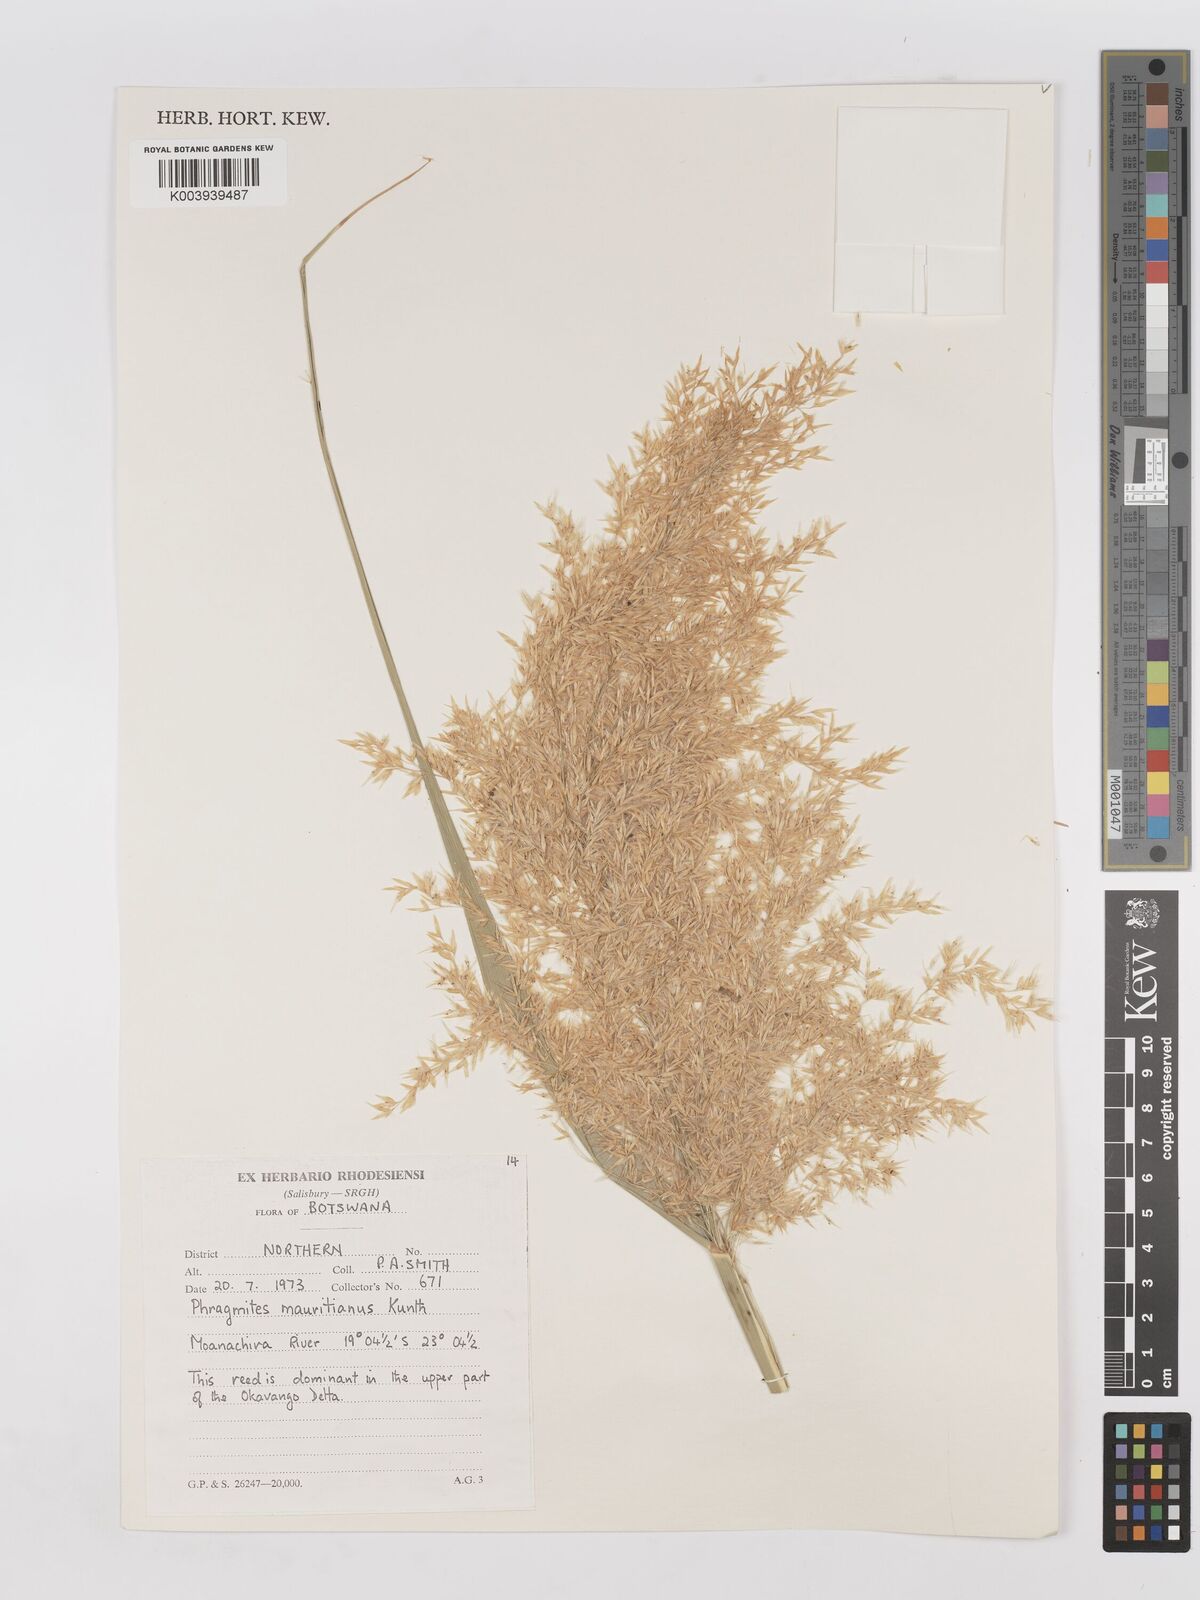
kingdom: Plantae
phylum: Tracheophyta
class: Liliopsida
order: Poales
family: Poaceae
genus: Phragmites
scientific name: Phragmites mauritianus
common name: Reed grass
